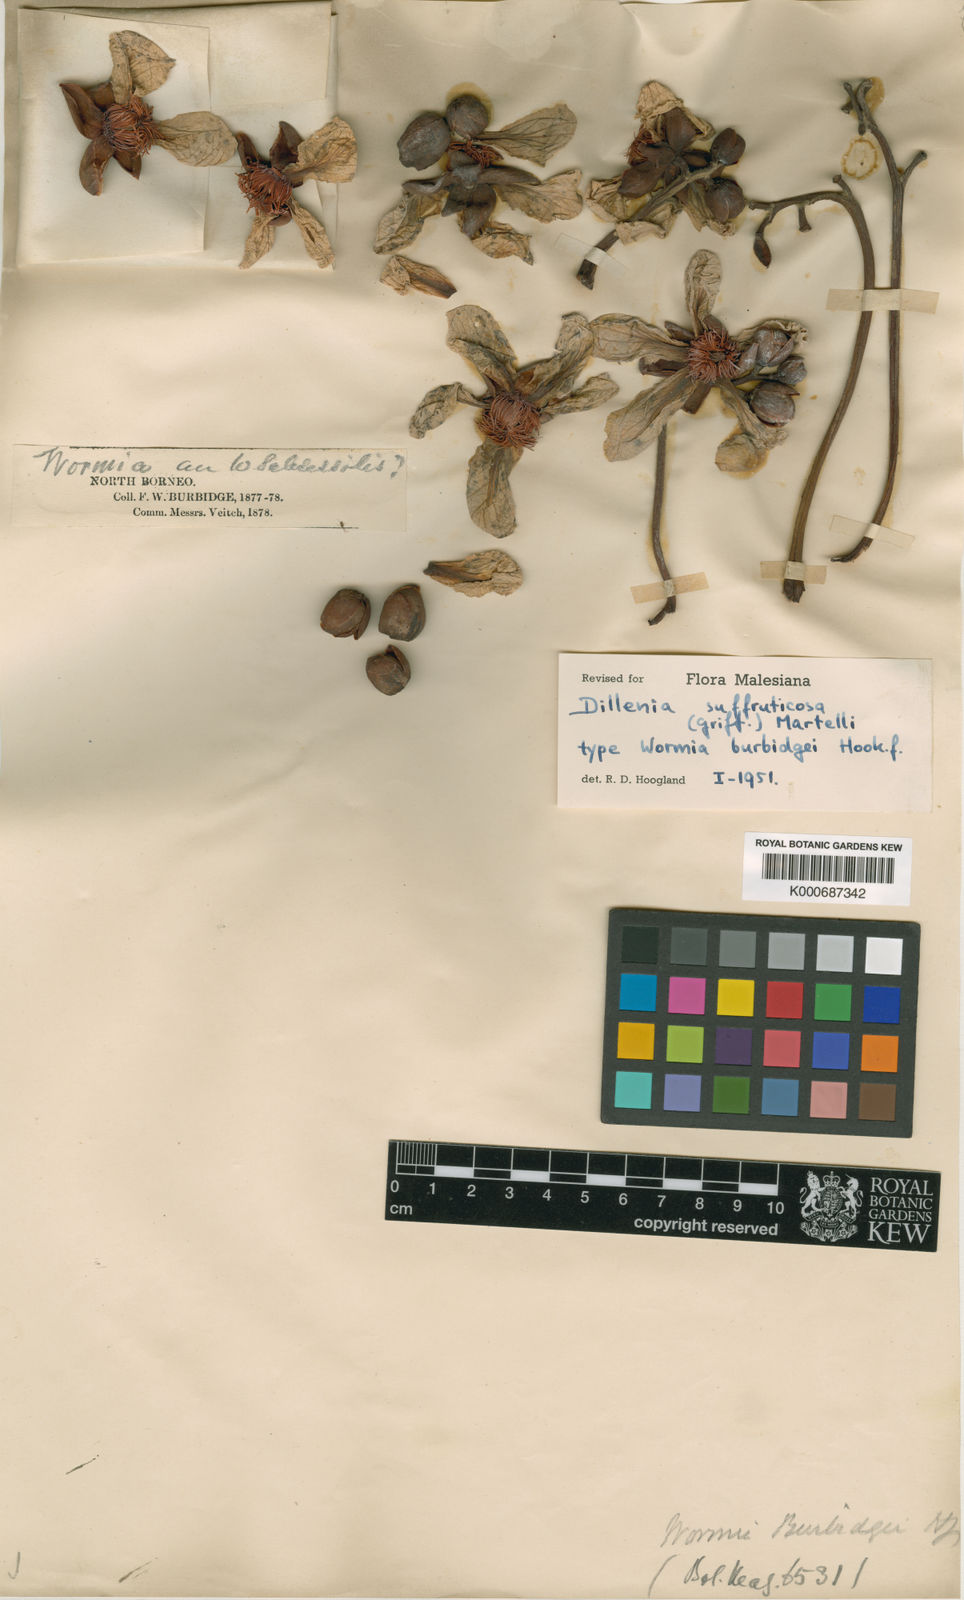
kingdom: Plantae
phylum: Tracheophyta
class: Magnoliopsida
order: Dilleniales
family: Dilleniaceae
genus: Dillenia
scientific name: Dillenia suffruticosa
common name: Shrubby dillenia
